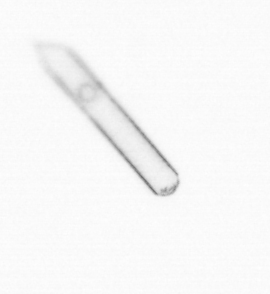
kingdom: Chromista
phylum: Ochrophyta
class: Bacillariophyceae
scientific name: Bacillariophyceae
